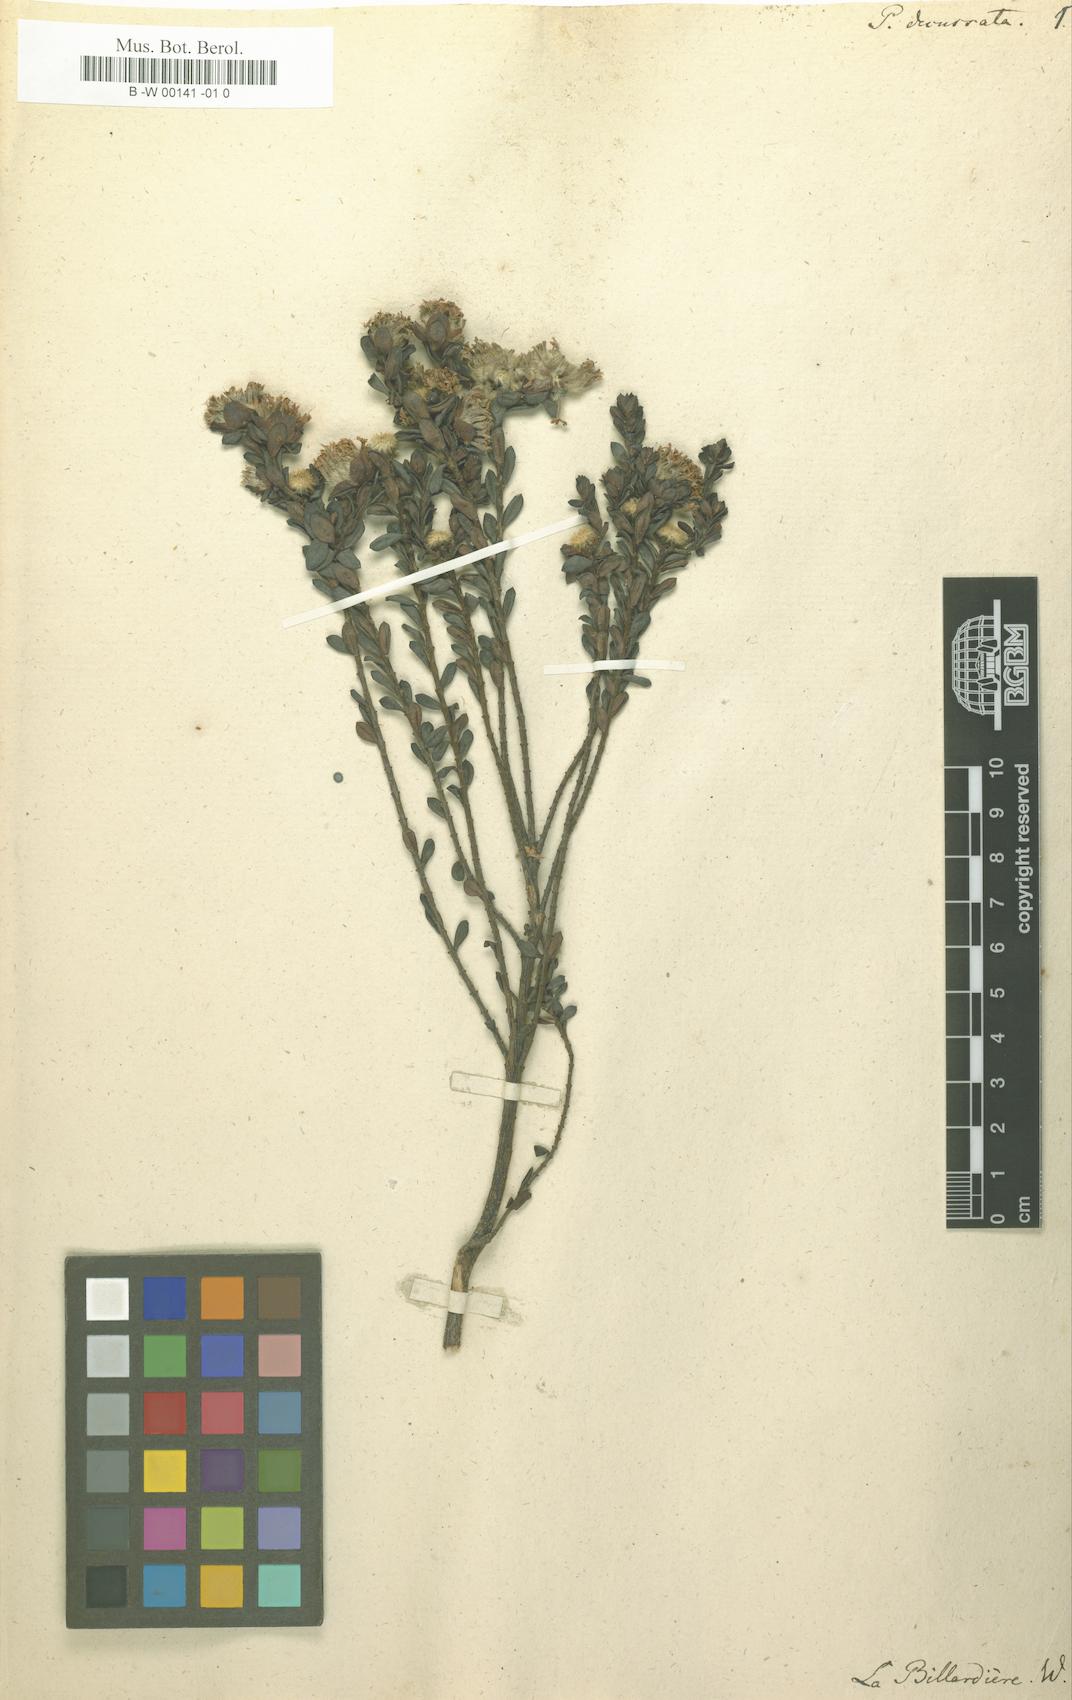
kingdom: Plantae
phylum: Tracheophyta
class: Magnoliopsida
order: Malvales
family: Thymelaeaceae
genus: Pimelea
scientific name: Pimelea ferruginea
